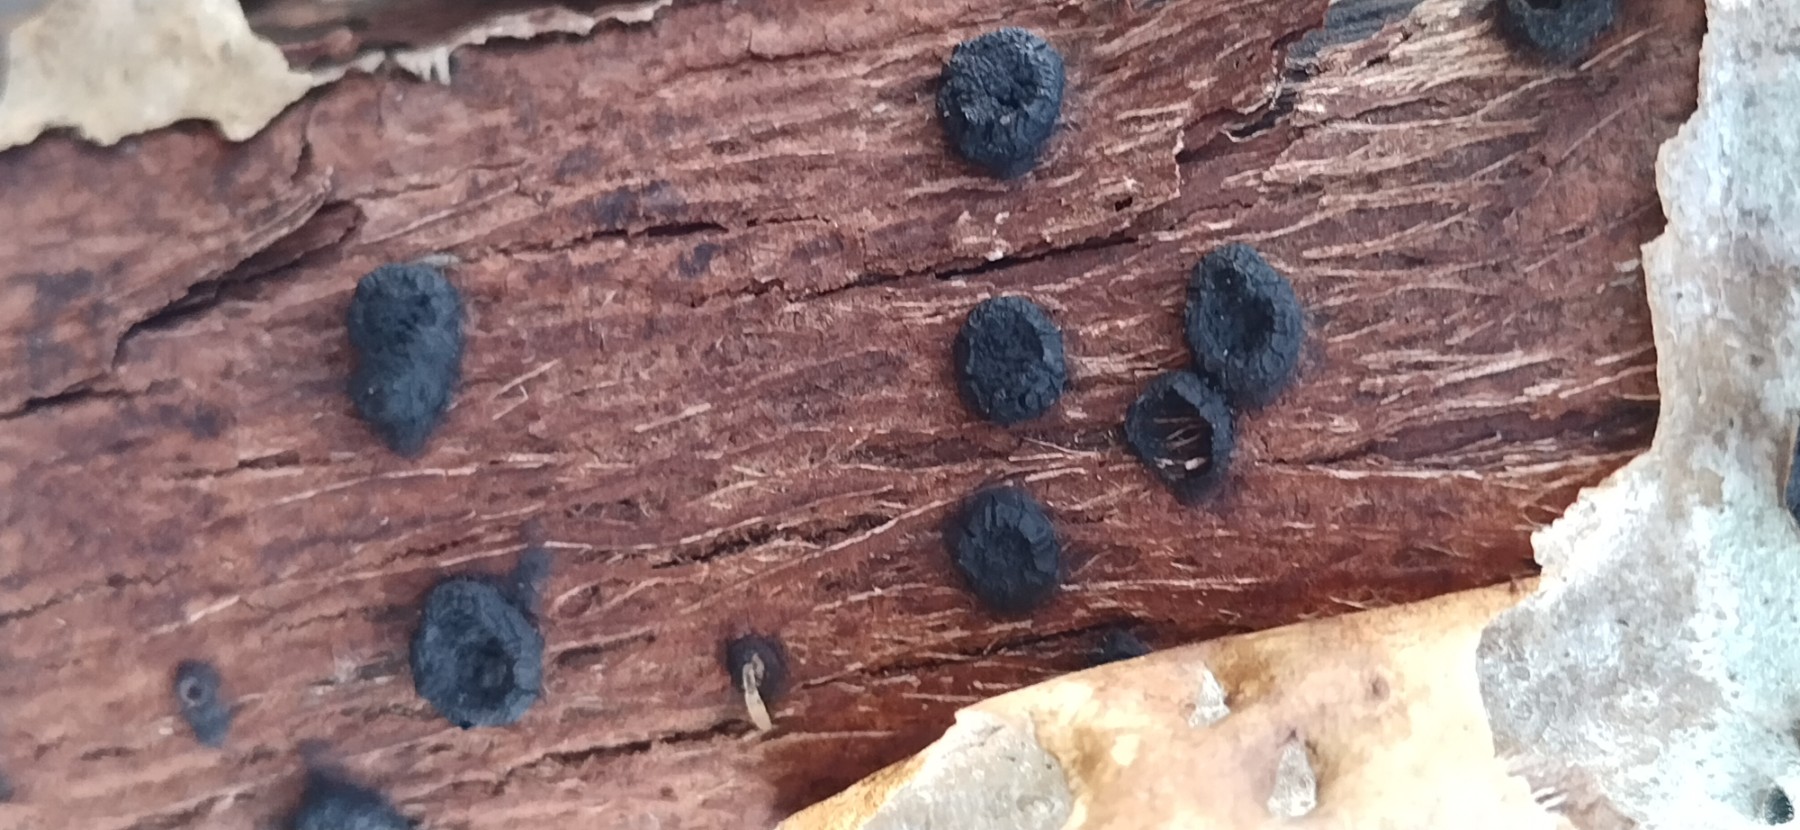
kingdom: Fungi
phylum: Ascomycota
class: Sordariomycetes
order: Xylariales
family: Diatrypaceae
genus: Eutypella
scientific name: Eutypella sorbi
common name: rønne-kulskorpe
